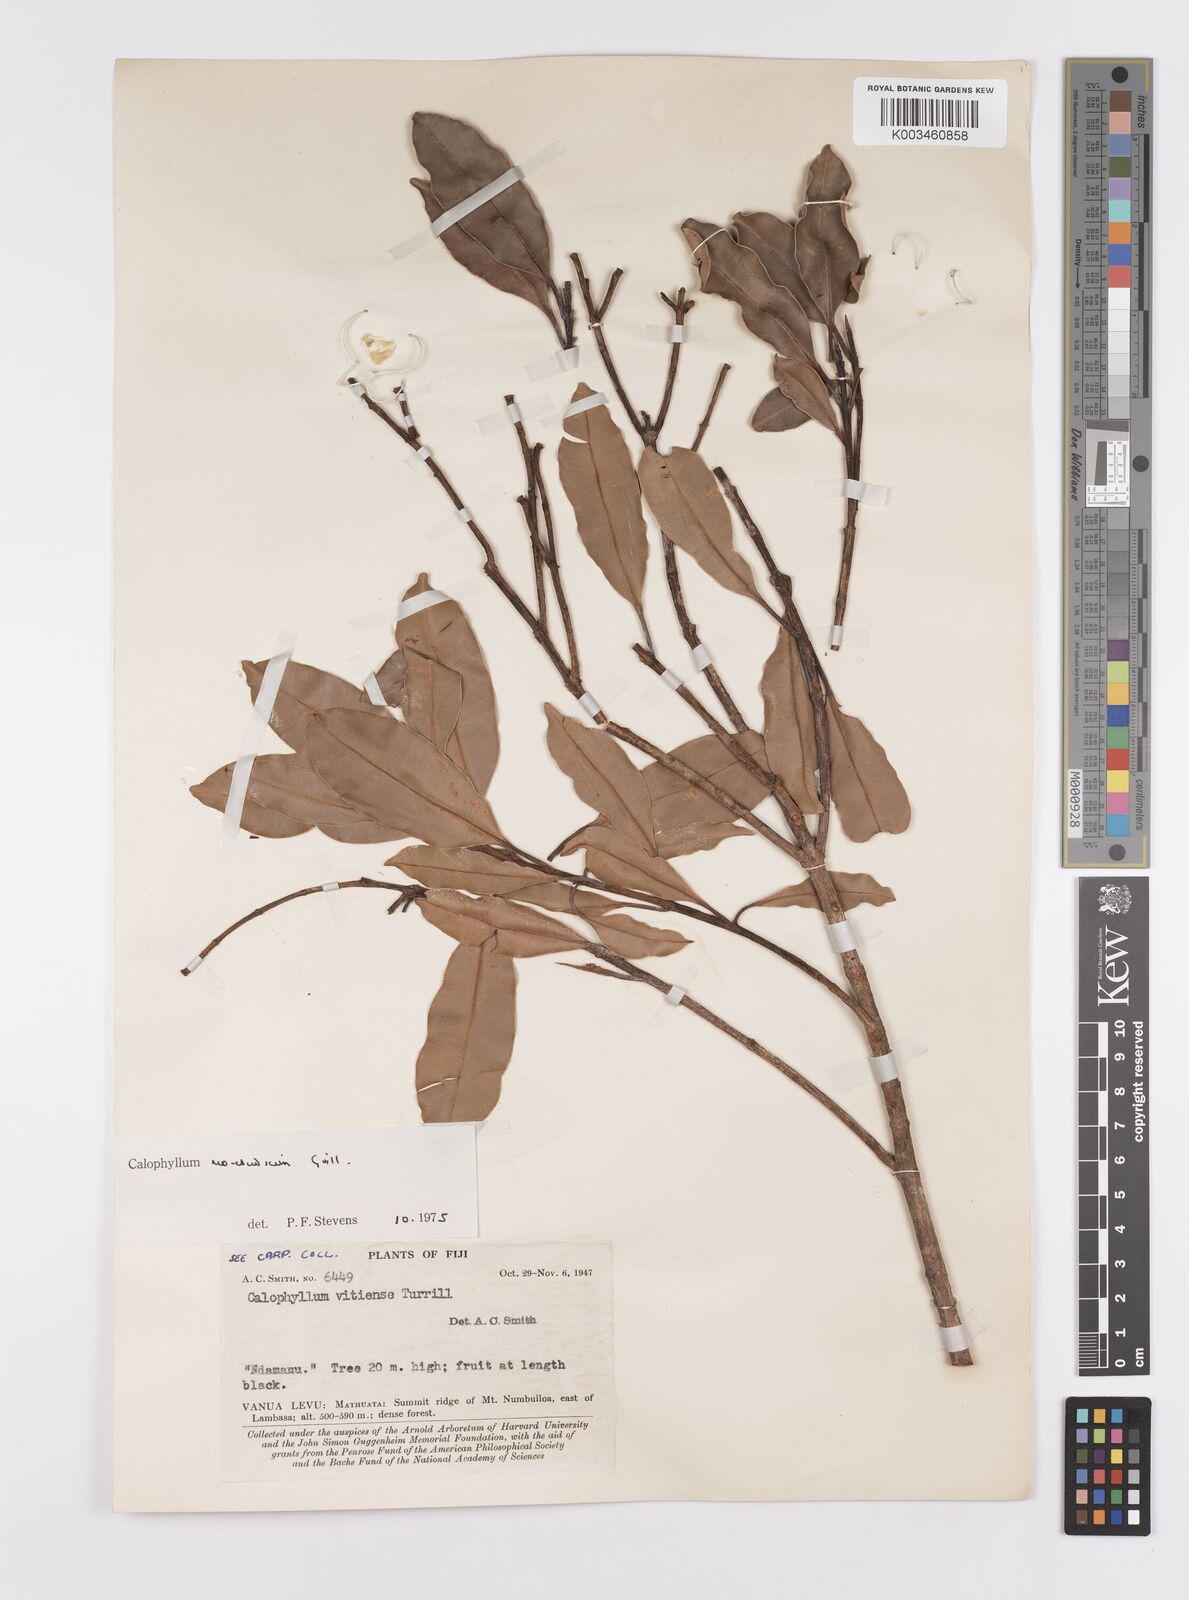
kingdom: Plantae
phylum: Tracheophyta
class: Magnoliopsida
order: Malpighiales
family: Calophyllaceae
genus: Calophyllum
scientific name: Calophyllum neoebudicum
